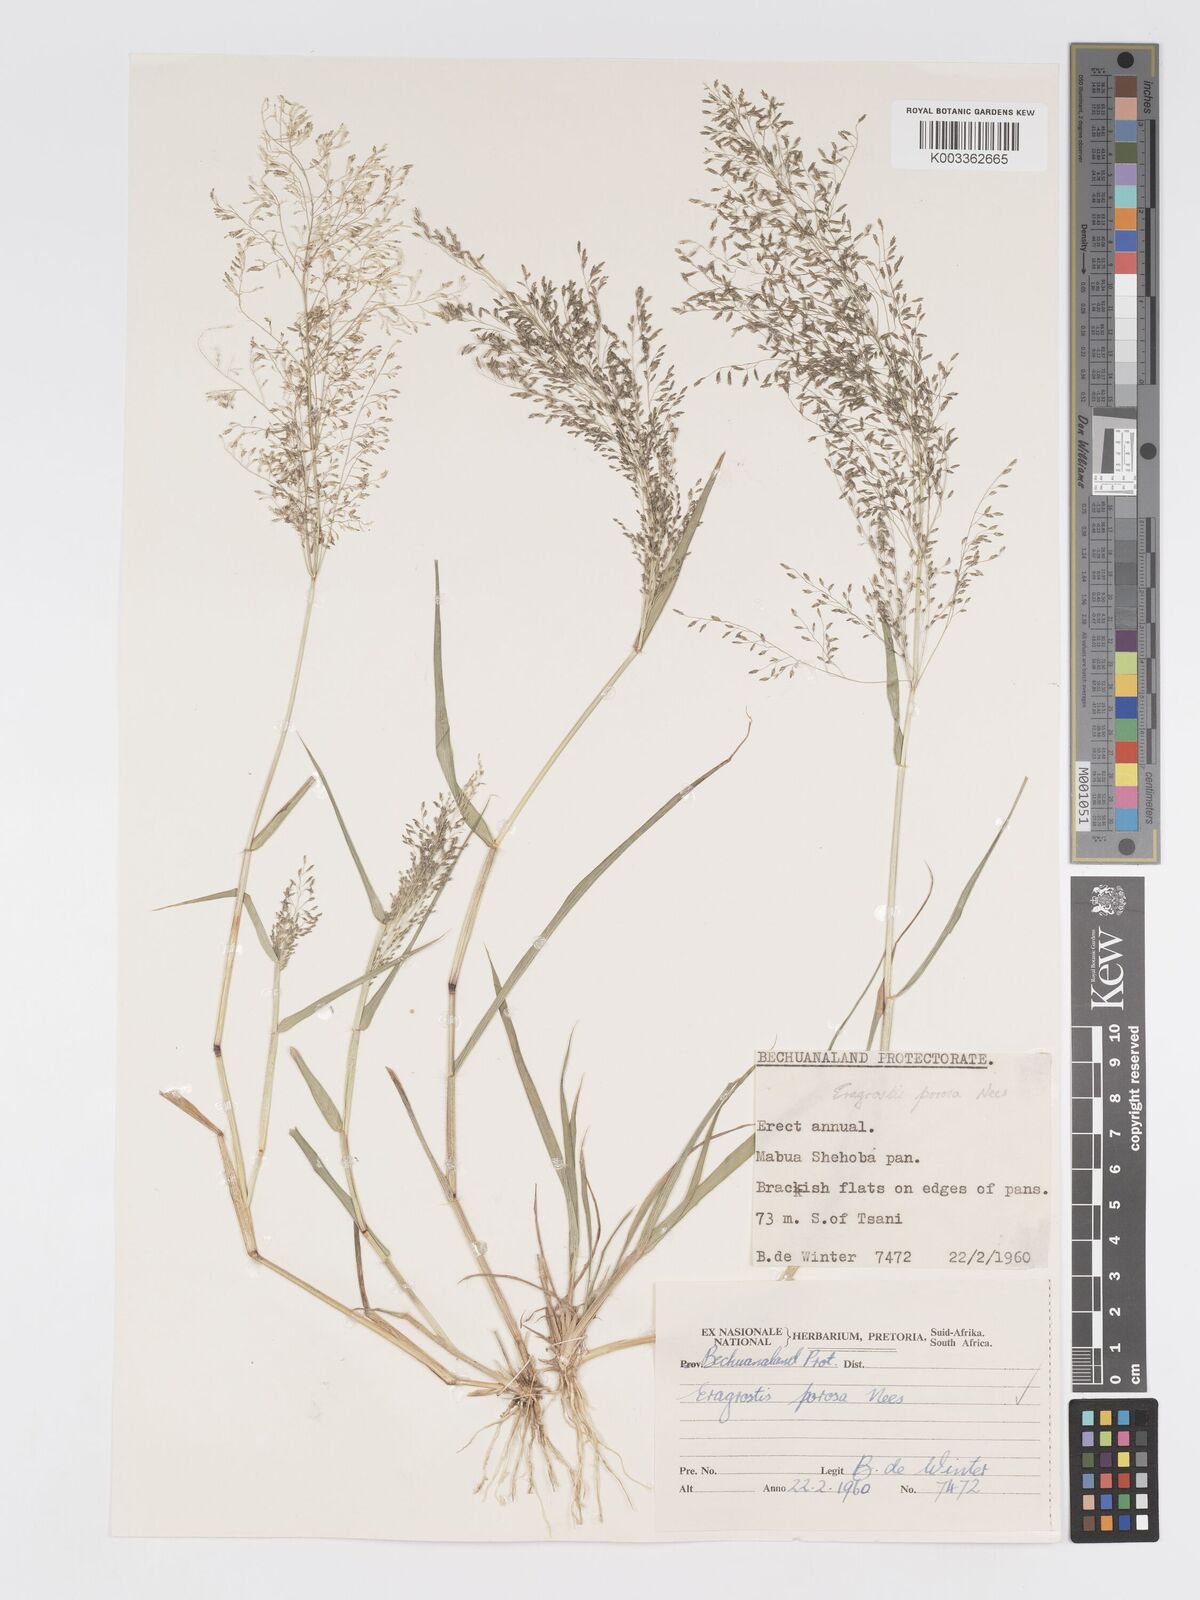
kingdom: Plantae
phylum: Tracheophyta
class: Liliopsida
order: Poales
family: Poaceae
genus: Eragrostis
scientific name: Eragrostis porosa
